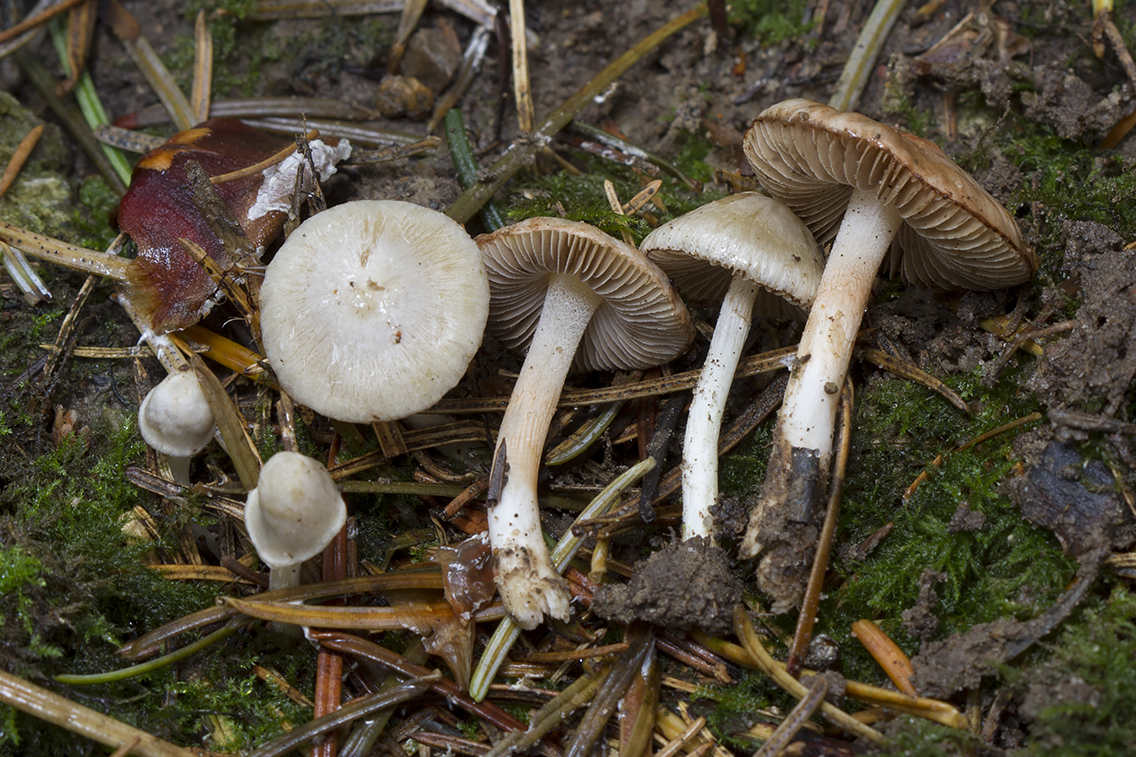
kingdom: Fungi
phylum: Basidiomycota
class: Agaricomycetes
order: Agaricales
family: Inocybaceae
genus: Inocybe
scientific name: Inocybe
